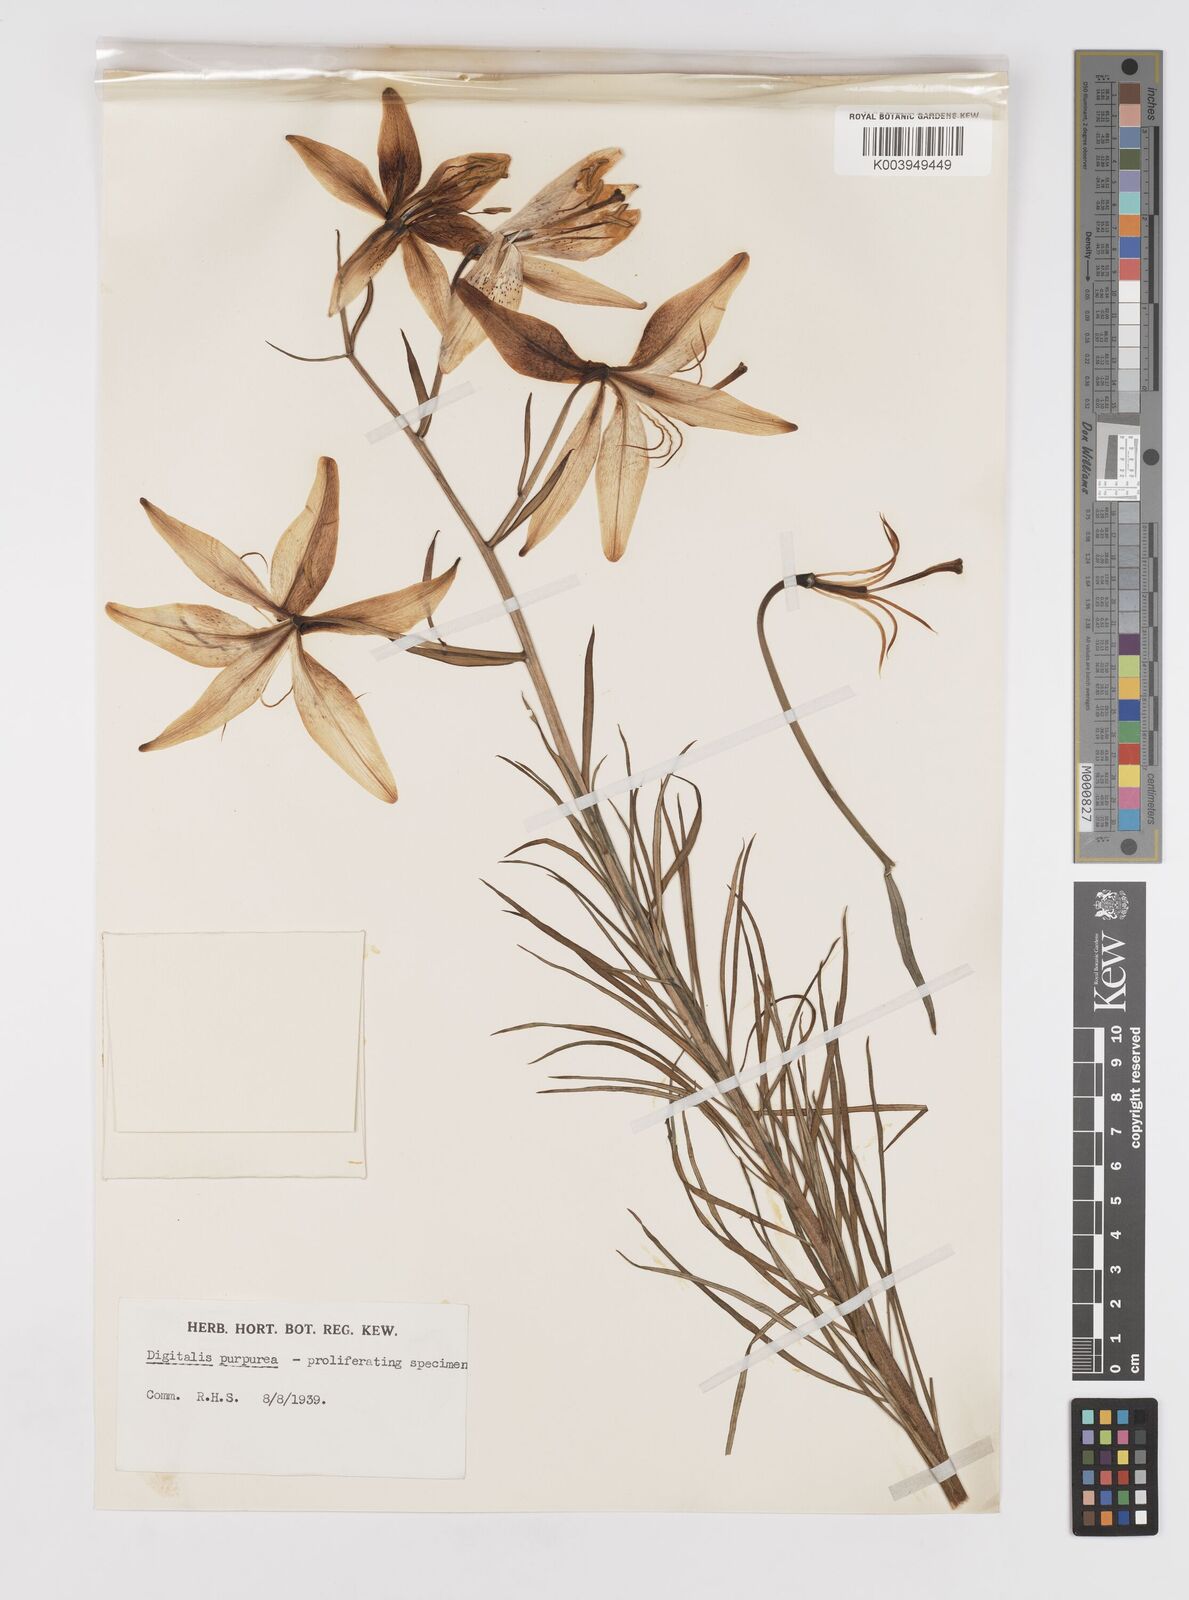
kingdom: Plantae
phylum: Tracheophyta
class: Liliopsida
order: Liliales
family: Liliaceae
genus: Lilium
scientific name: Lilium davidii
